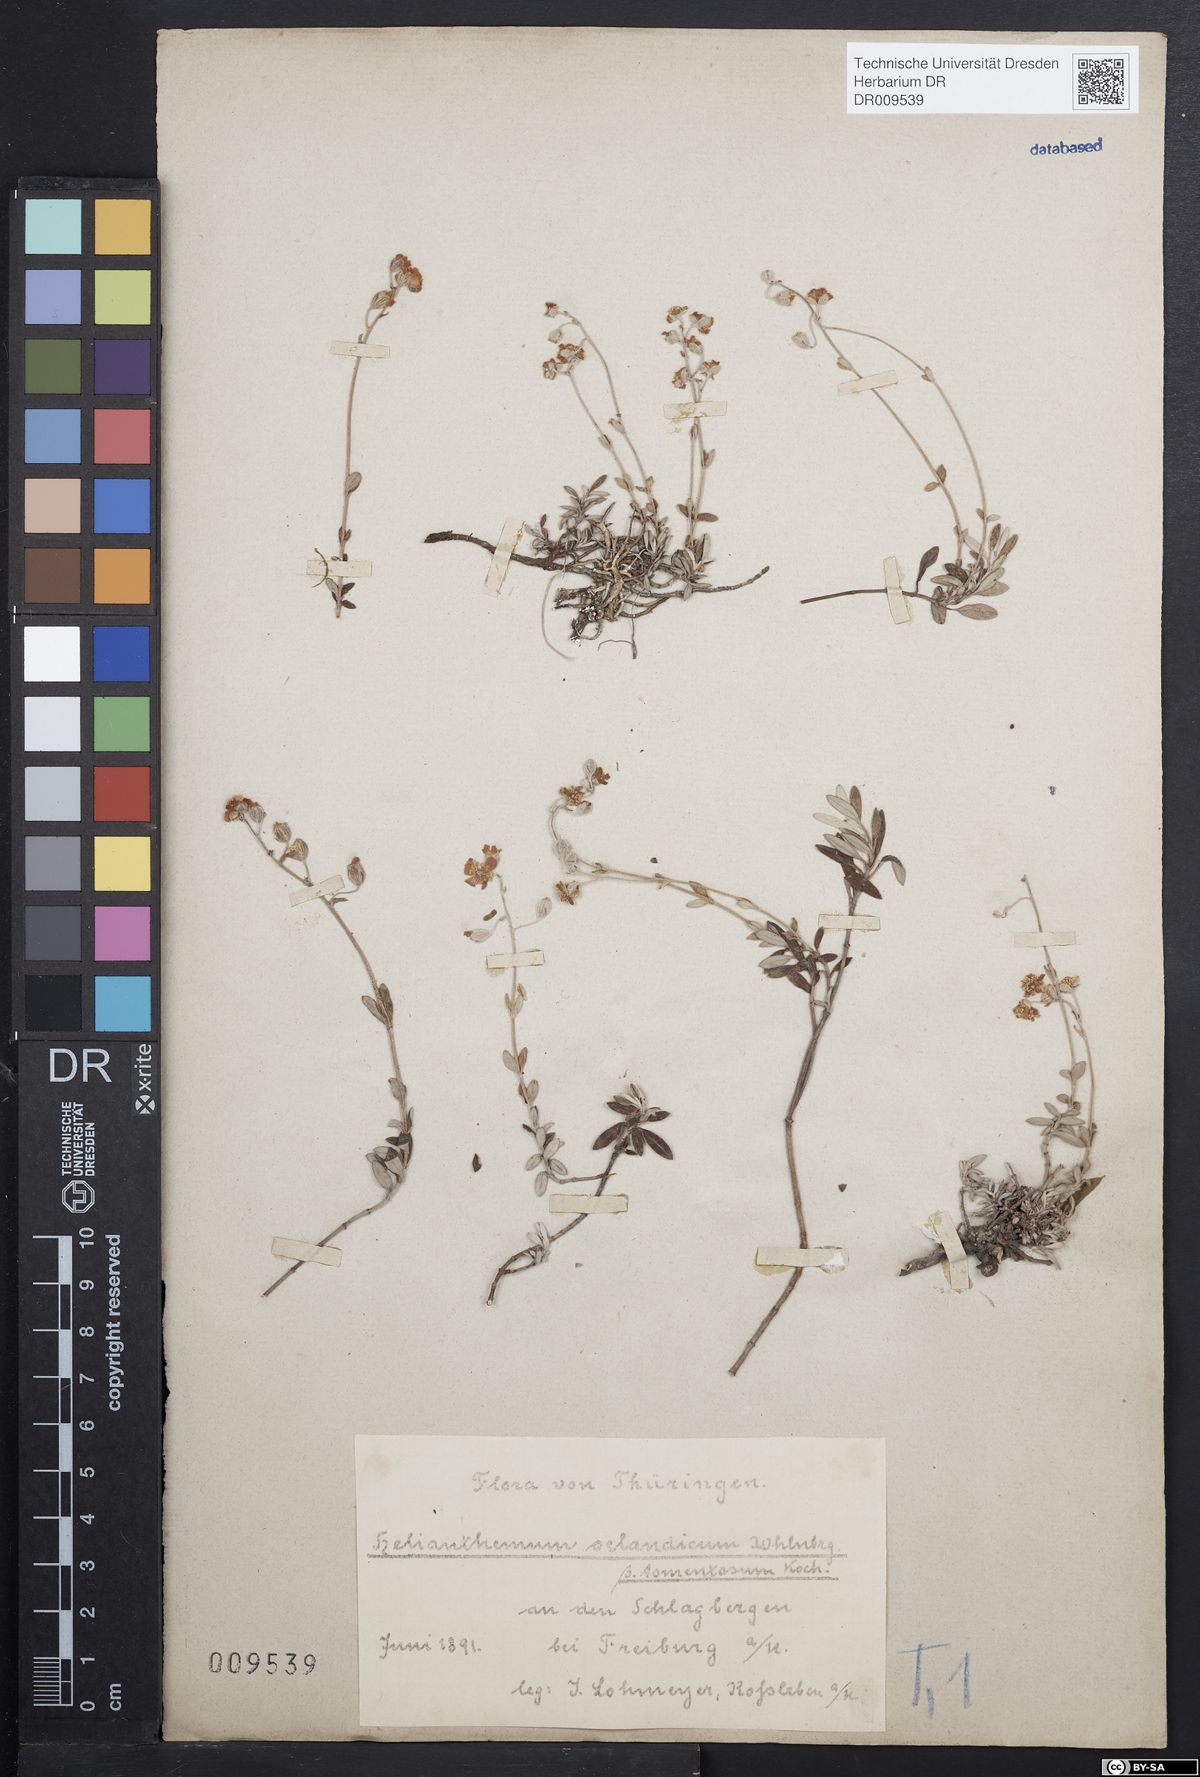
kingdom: Plantae
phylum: Tracheophyta
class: Magnoliopsida
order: Malvales
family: Cistaceae
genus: Helianthemum
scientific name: Helianthemum canum
